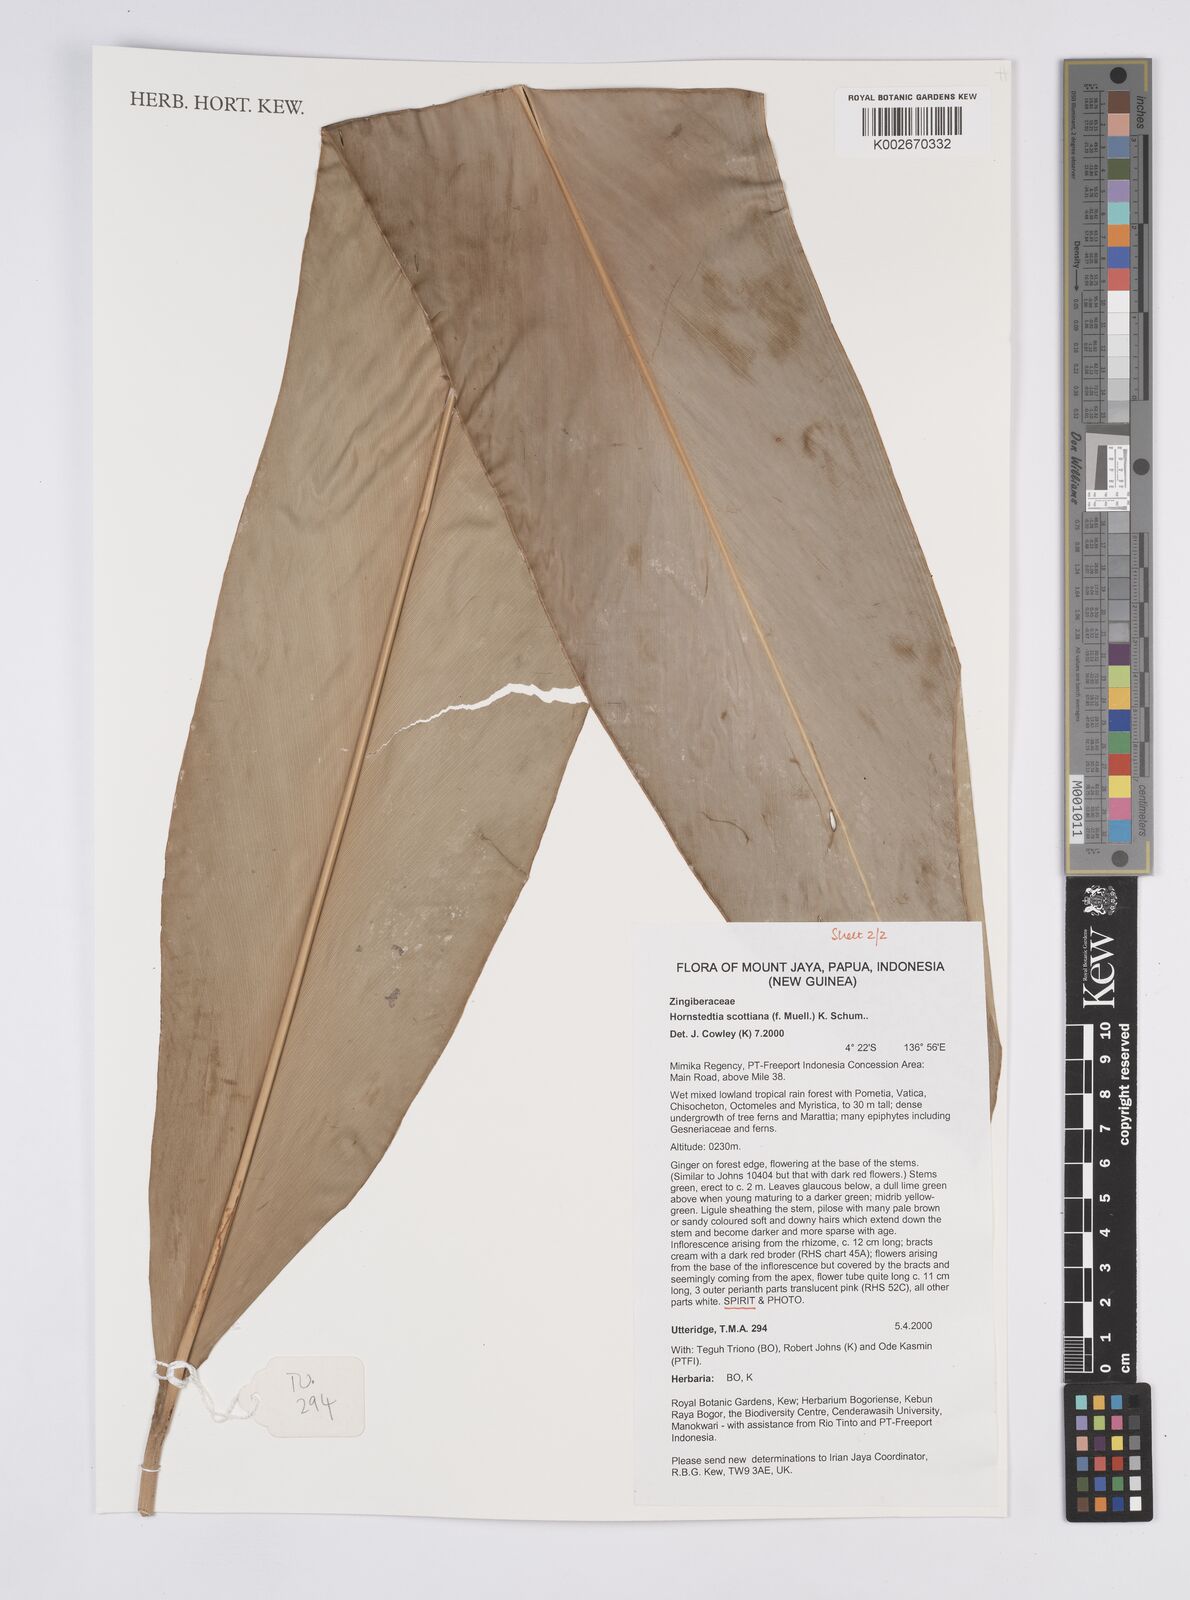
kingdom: Plantae
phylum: Tracheophyta
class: Liliopsida
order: Zingiberales
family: Zingiberaceae
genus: Hornstedtia
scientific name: Hornstedtia scottiana
